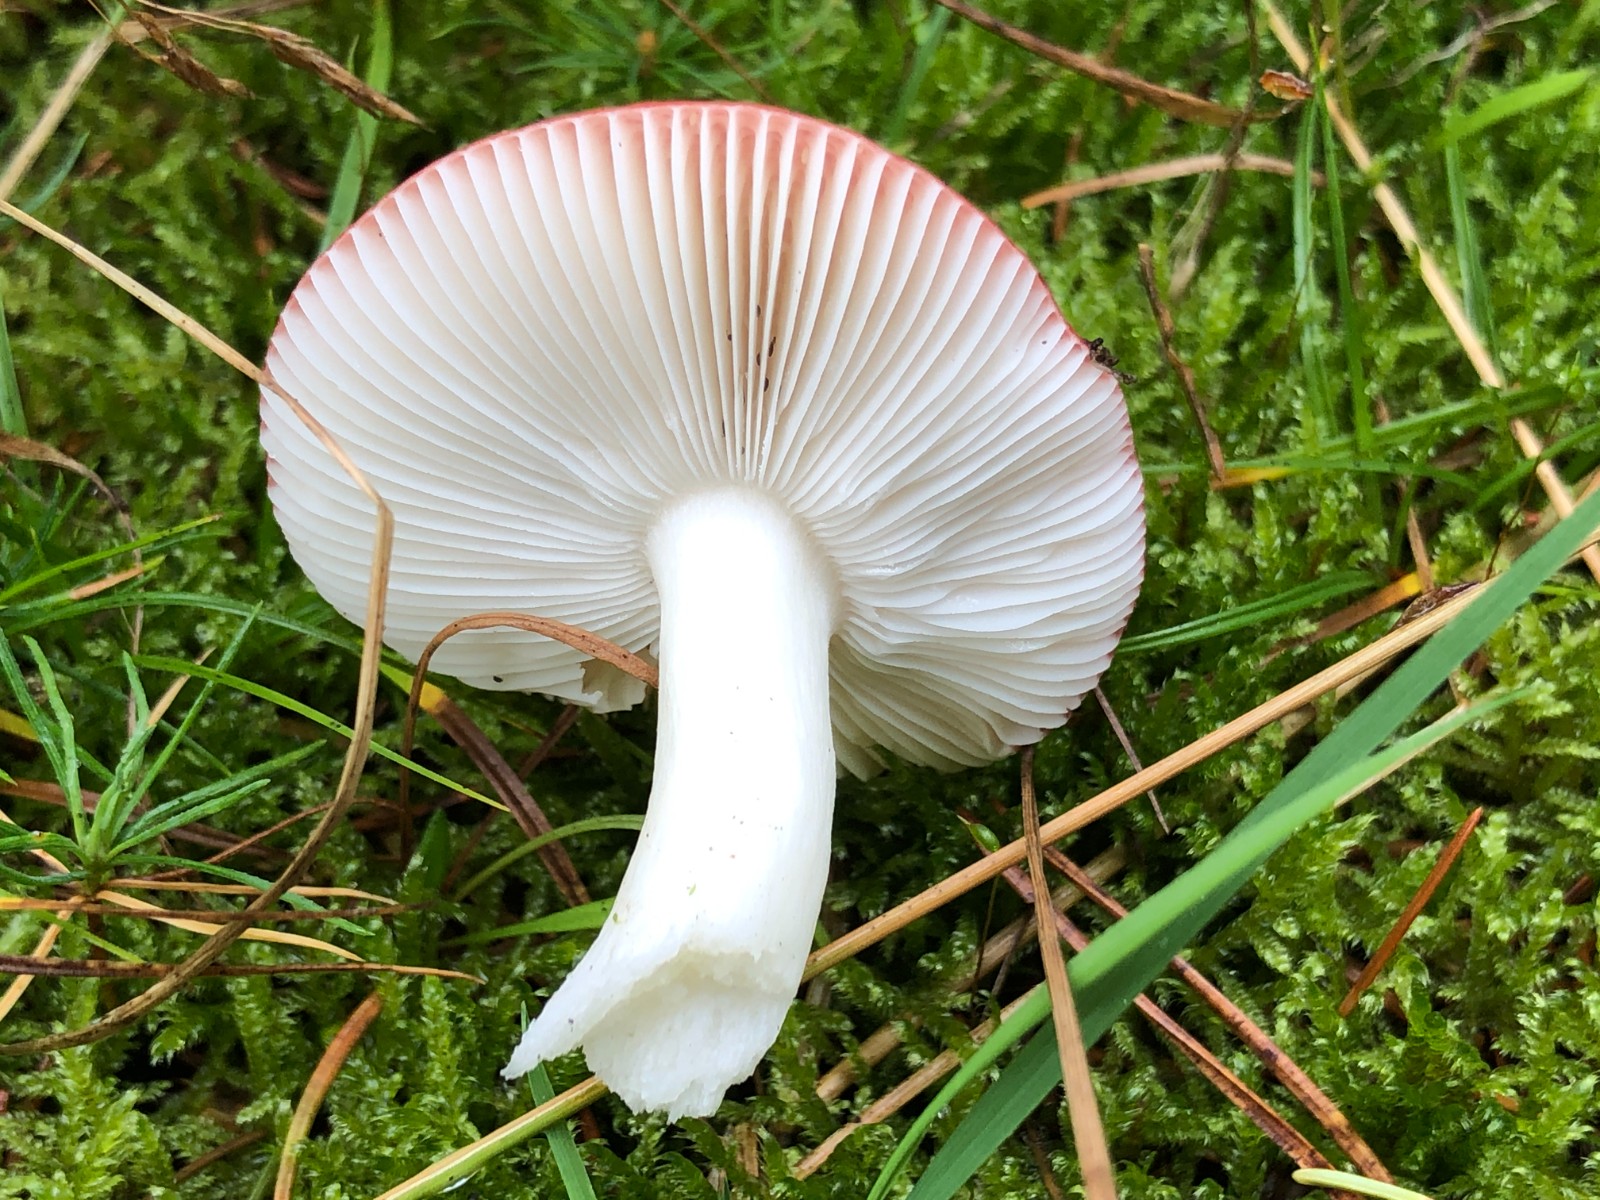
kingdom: Fungi
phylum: Basidiomycota
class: Agaricomycetes
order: Russulales
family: Russulaceae
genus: Russula
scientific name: Russula emetica
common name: stor gift-skørhat
